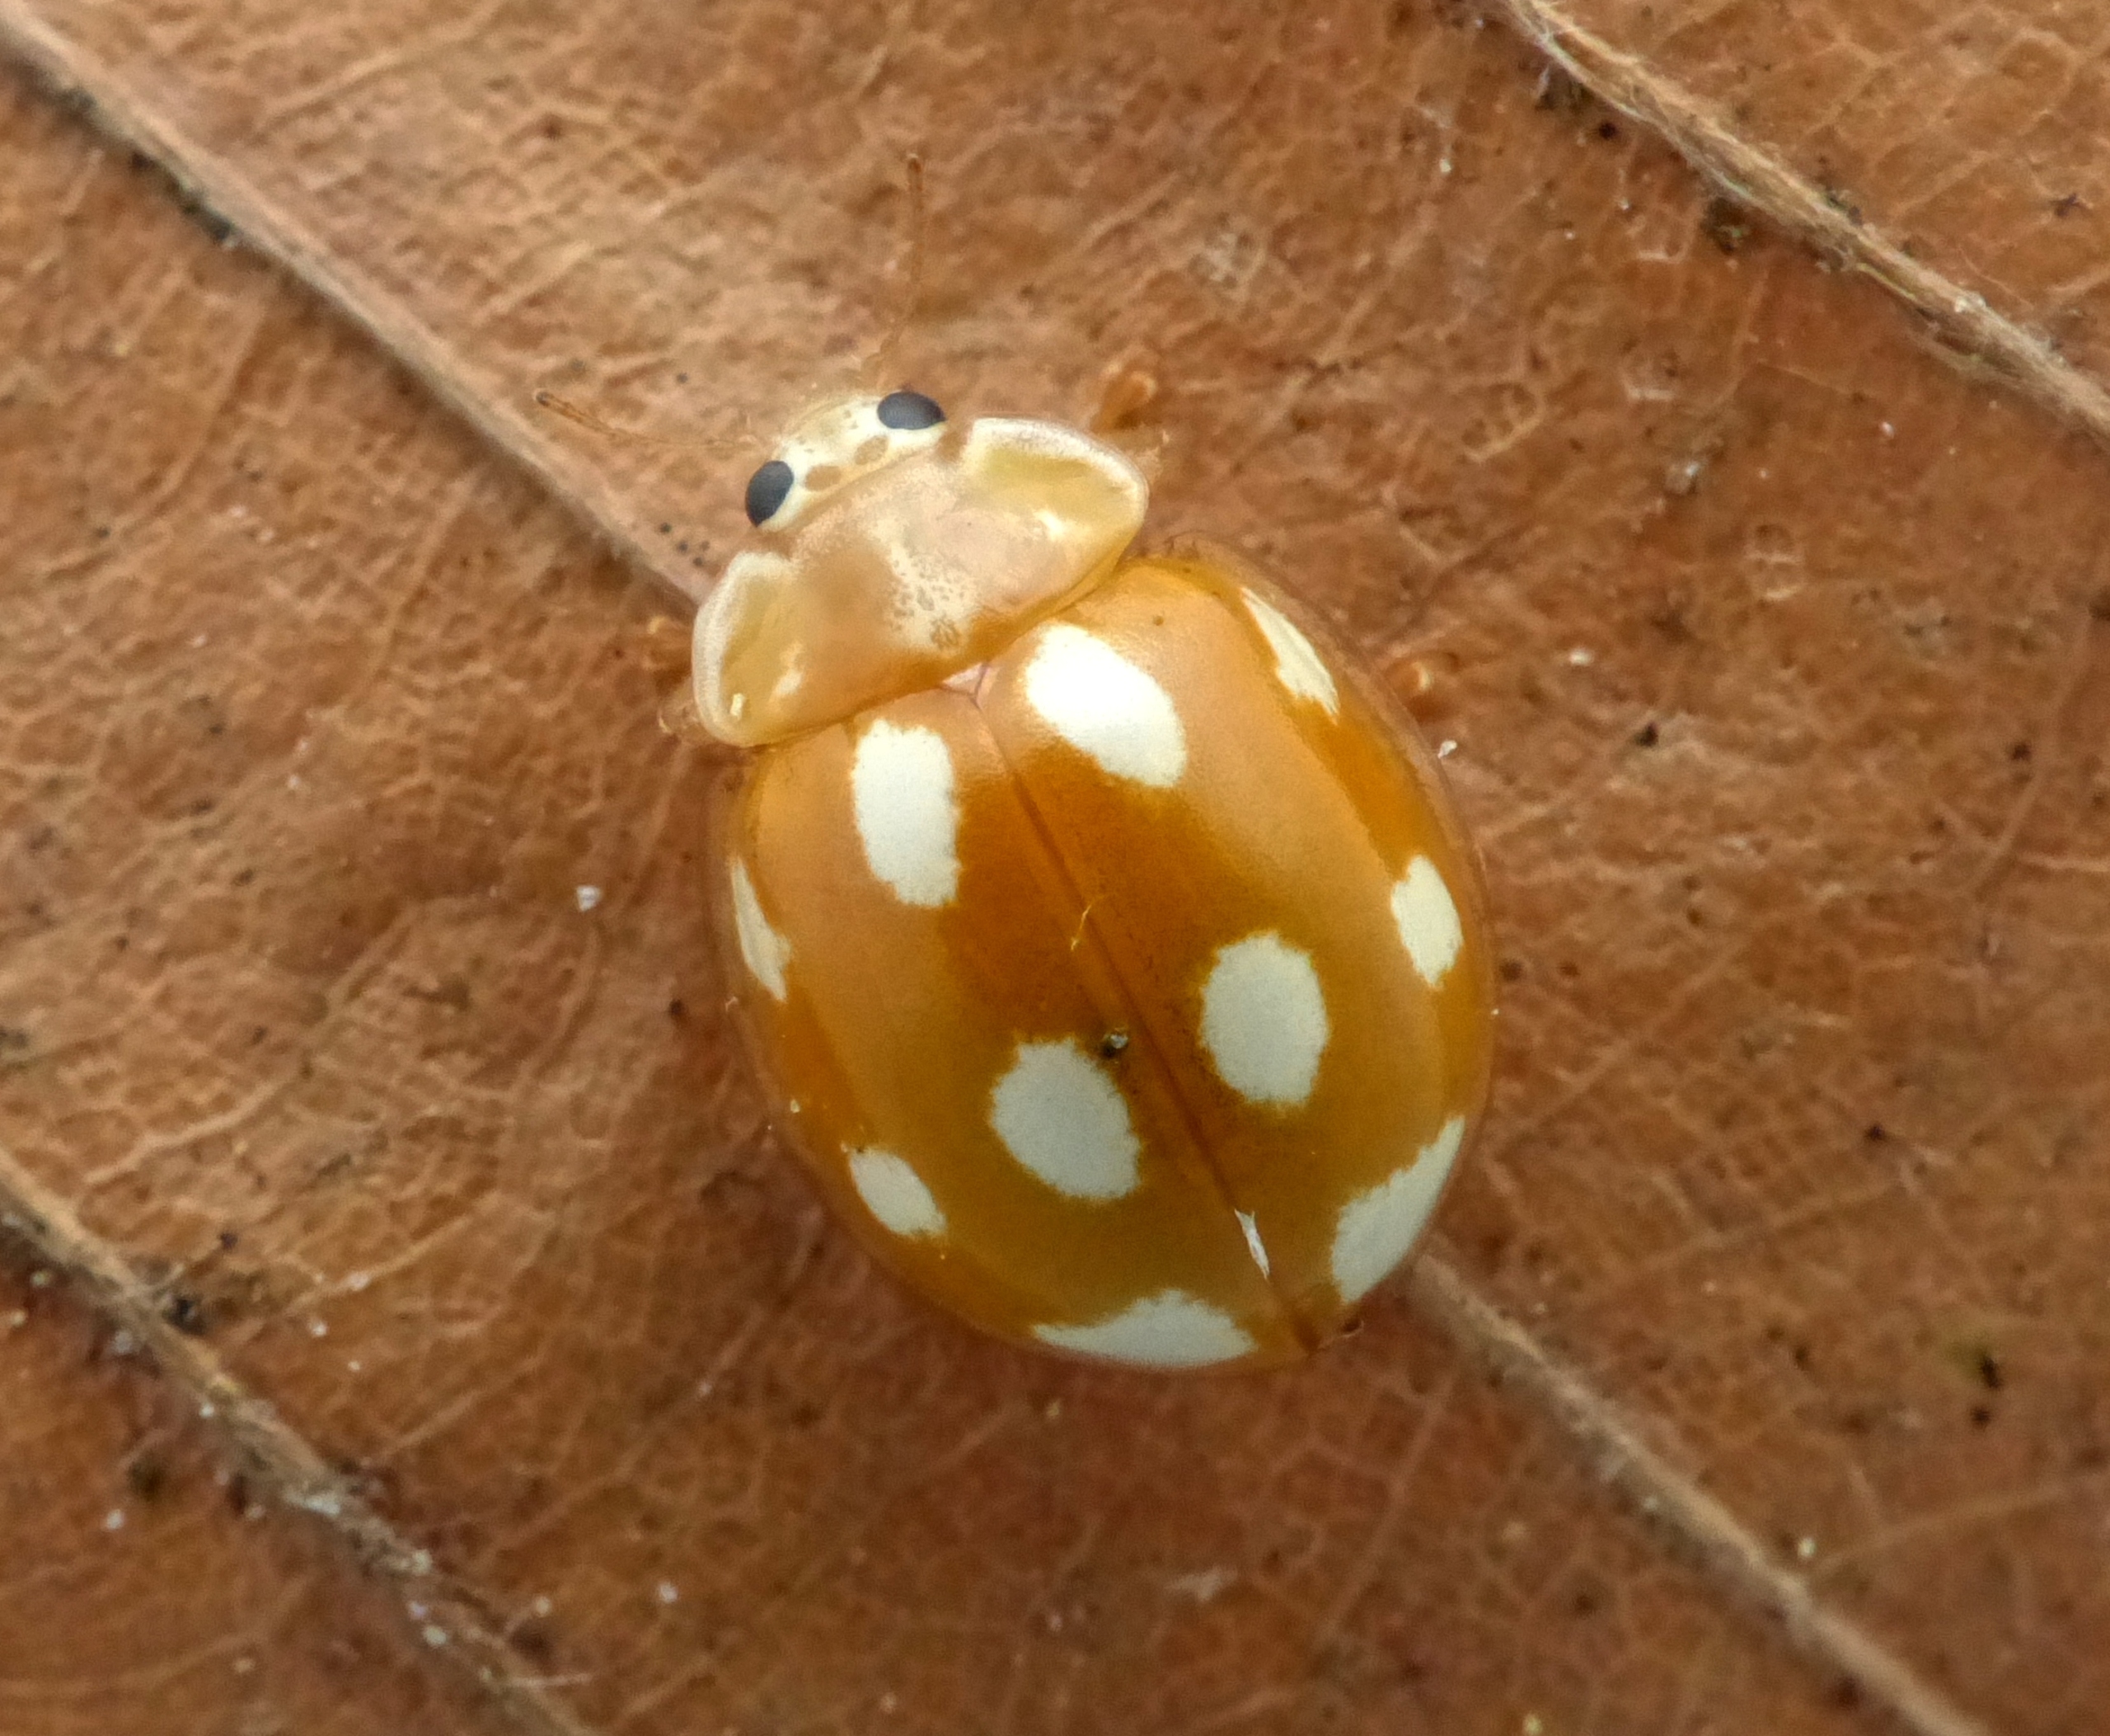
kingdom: Animalia
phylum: Arthropoda
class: Insecta
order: Coleoptera
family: Coccinellidae
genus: Calvia
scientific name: Calvia decemguttata
